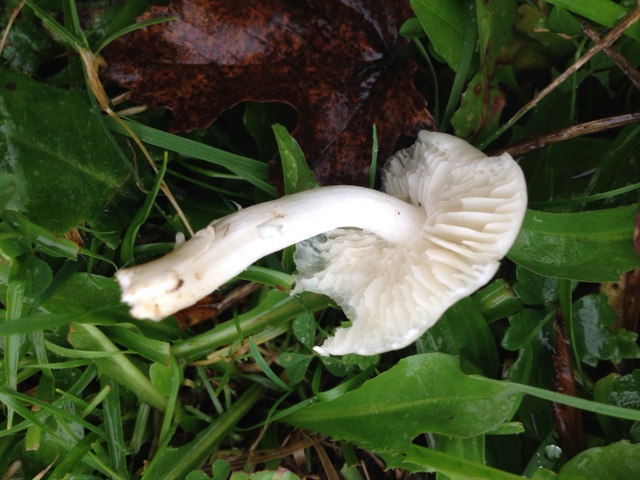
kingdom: Fungi
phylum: Basidiomycota
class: Agaricomycetes
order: Agaricales
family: Hygrophoraceae
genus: Cuphophyllus
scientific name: Cuphophyllus fornicatus
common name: gråbrun vokshat
